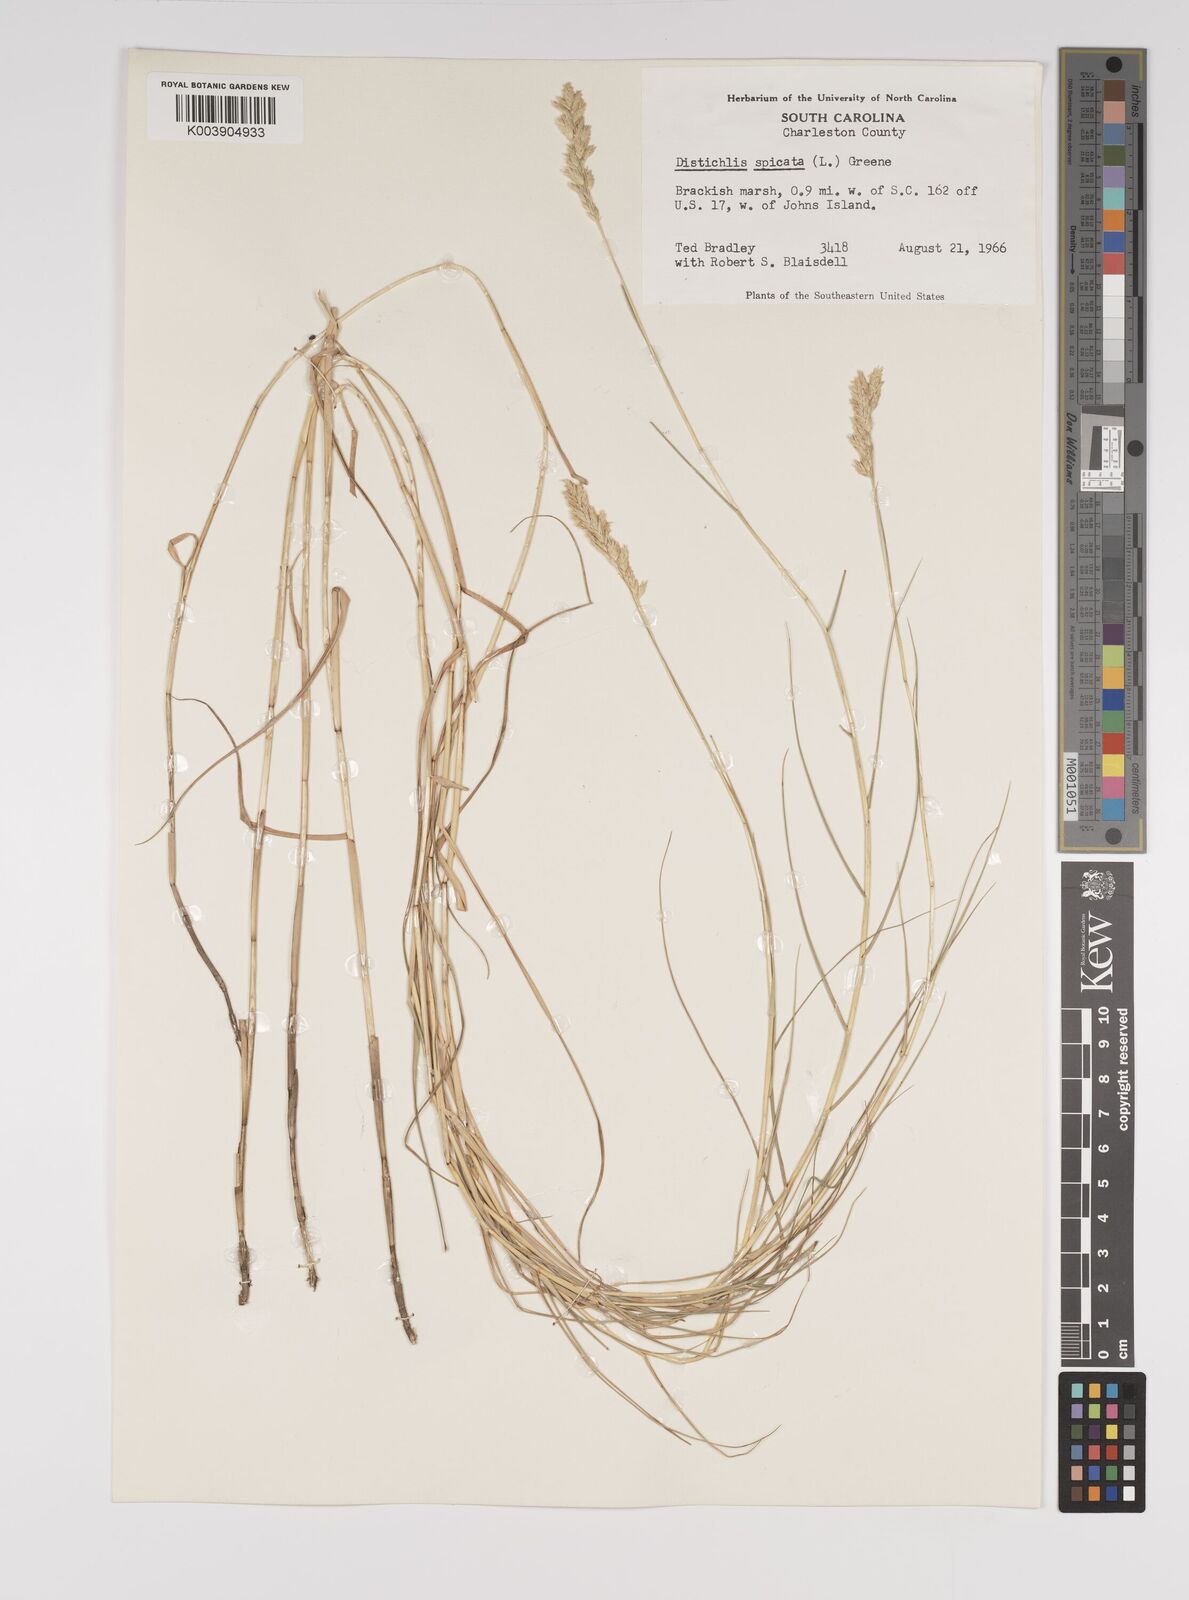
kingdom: Plantae
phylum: Tracheophyta
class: Liliopsida
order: Poales
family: Poaceae
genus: Distichlis
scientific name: Distichlis spicata
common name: Saltgrass
